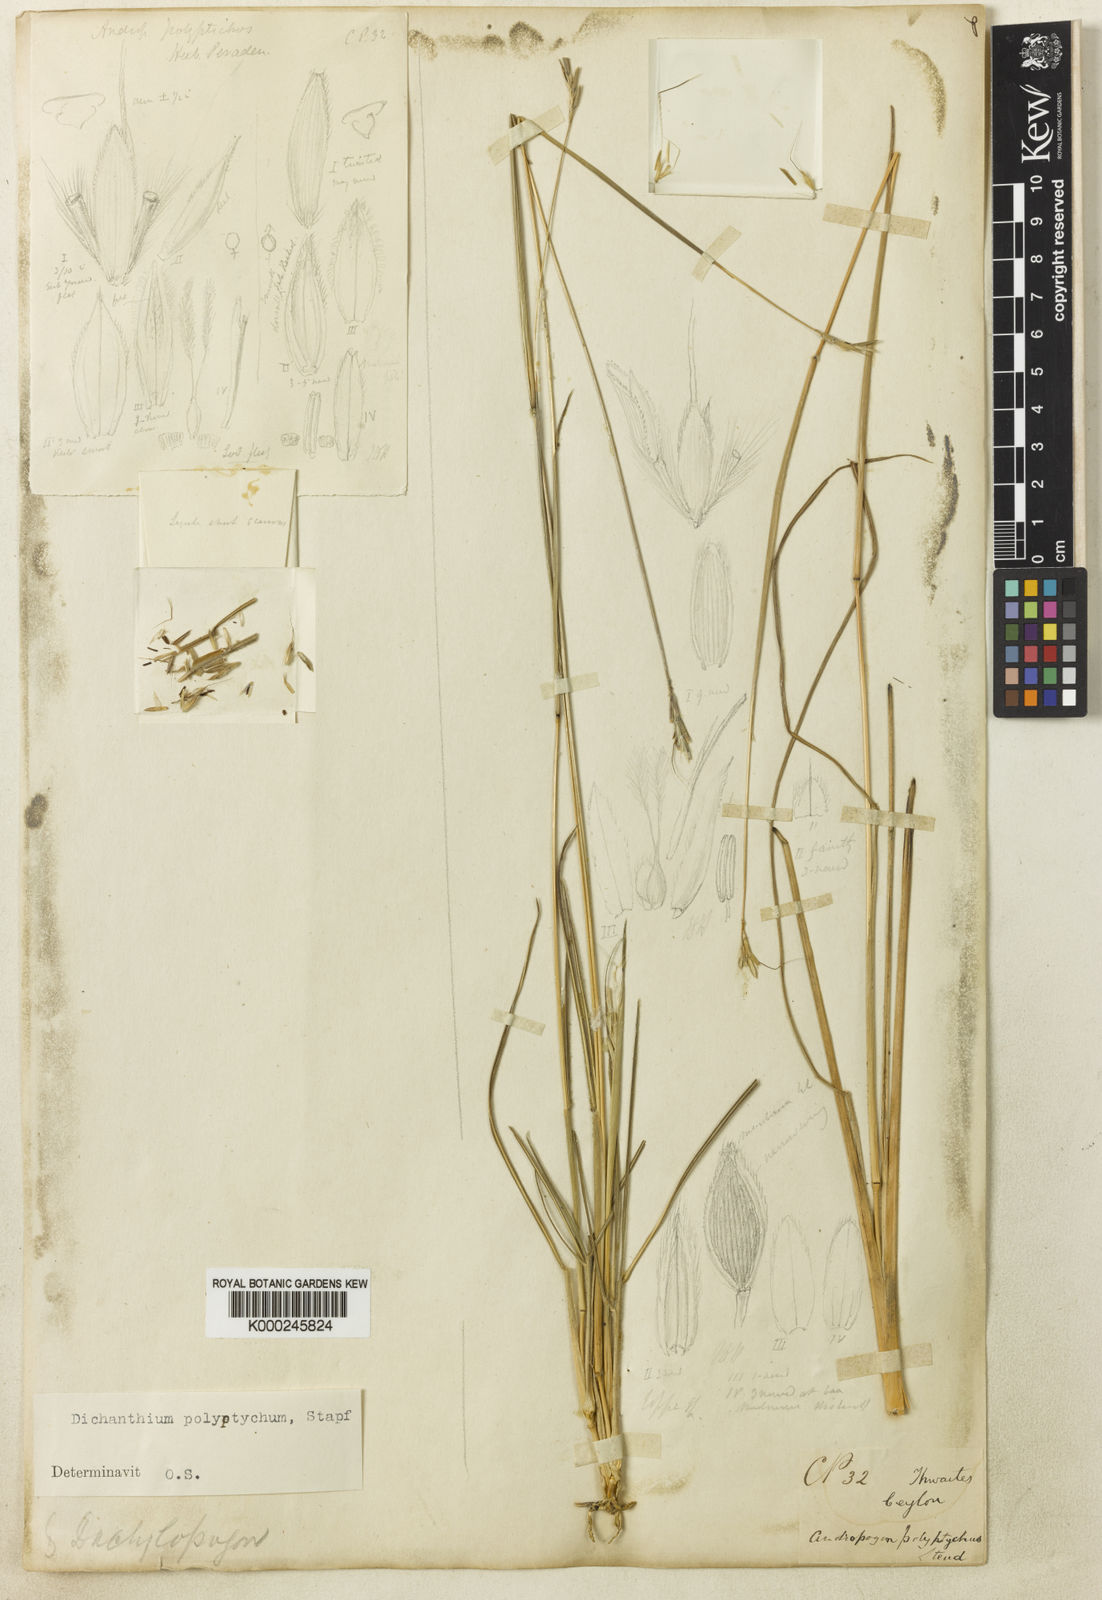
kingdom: Plantae
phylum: Tracheophyta
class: Liliopsida
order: Poales
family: Poaceae
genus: Andropogon
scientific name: Andropogon polyptychos
